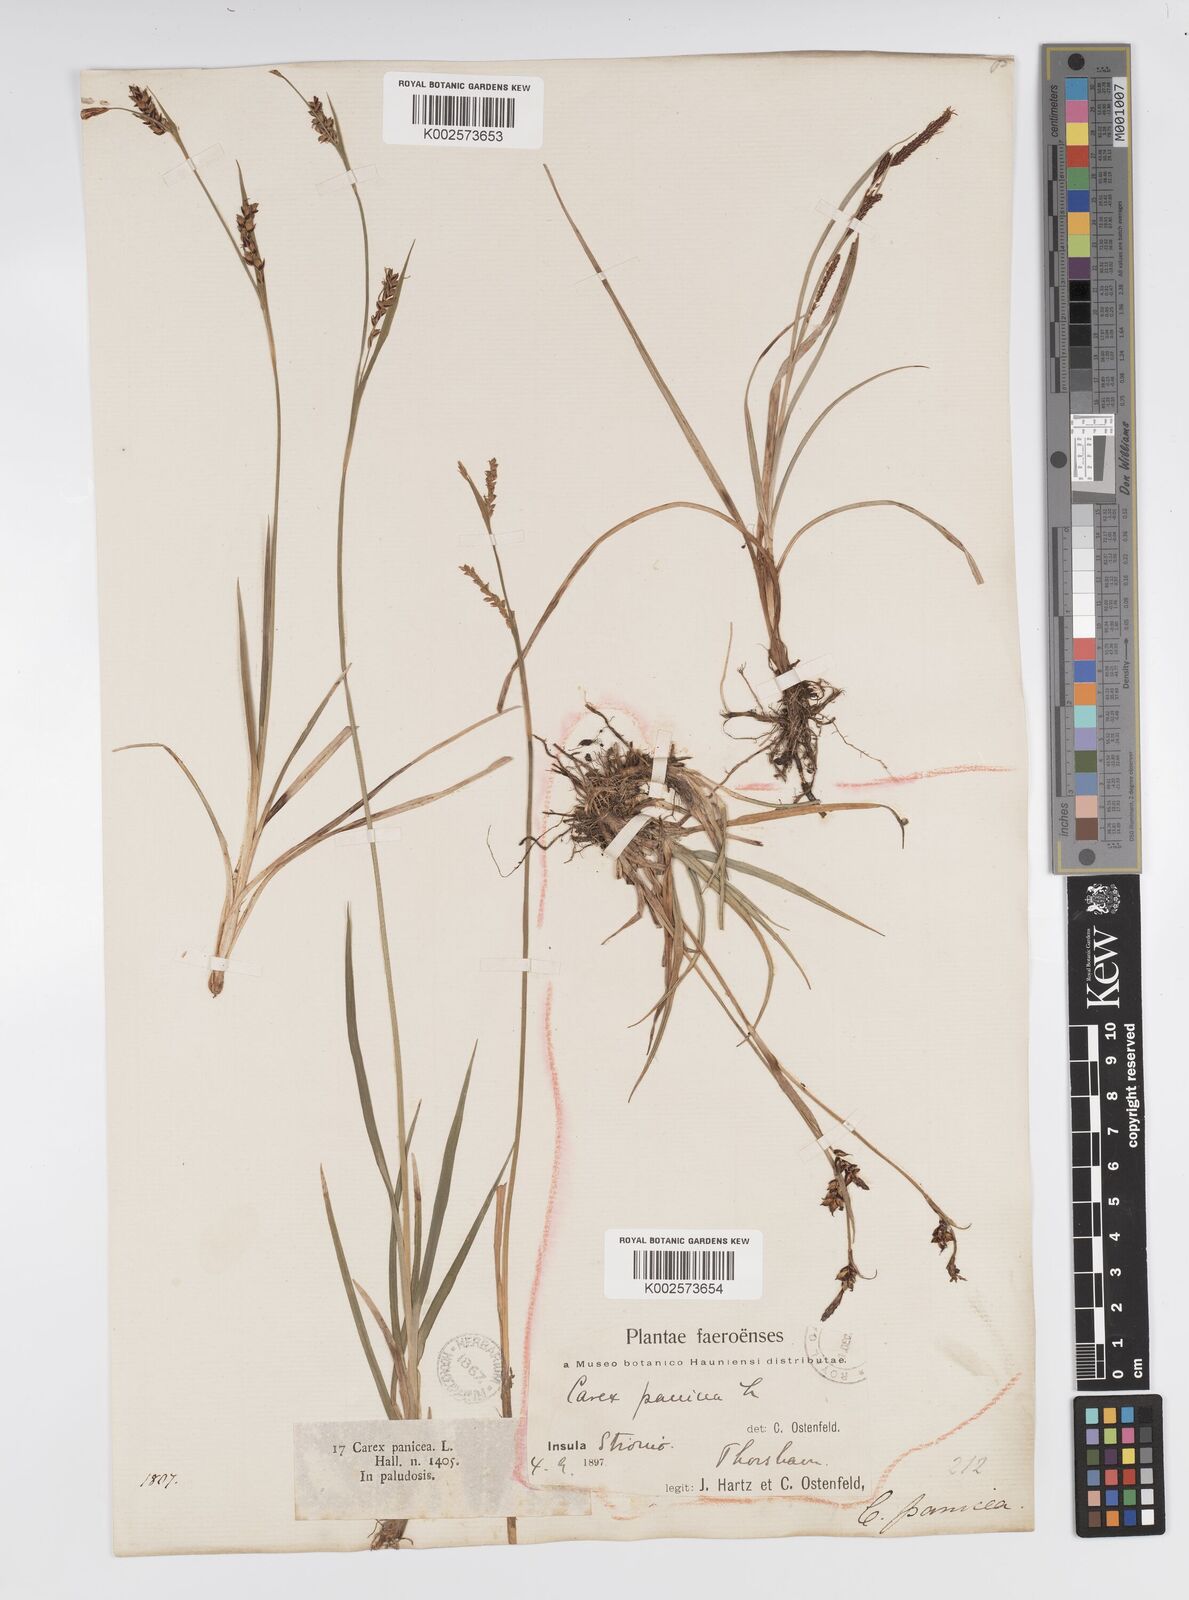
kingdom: Plantae
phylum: Tracheophyta
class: Liliopsida
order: Poales
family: Cyperaceae
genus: Carex
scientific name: Carex panicea
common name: Carnation sedge
